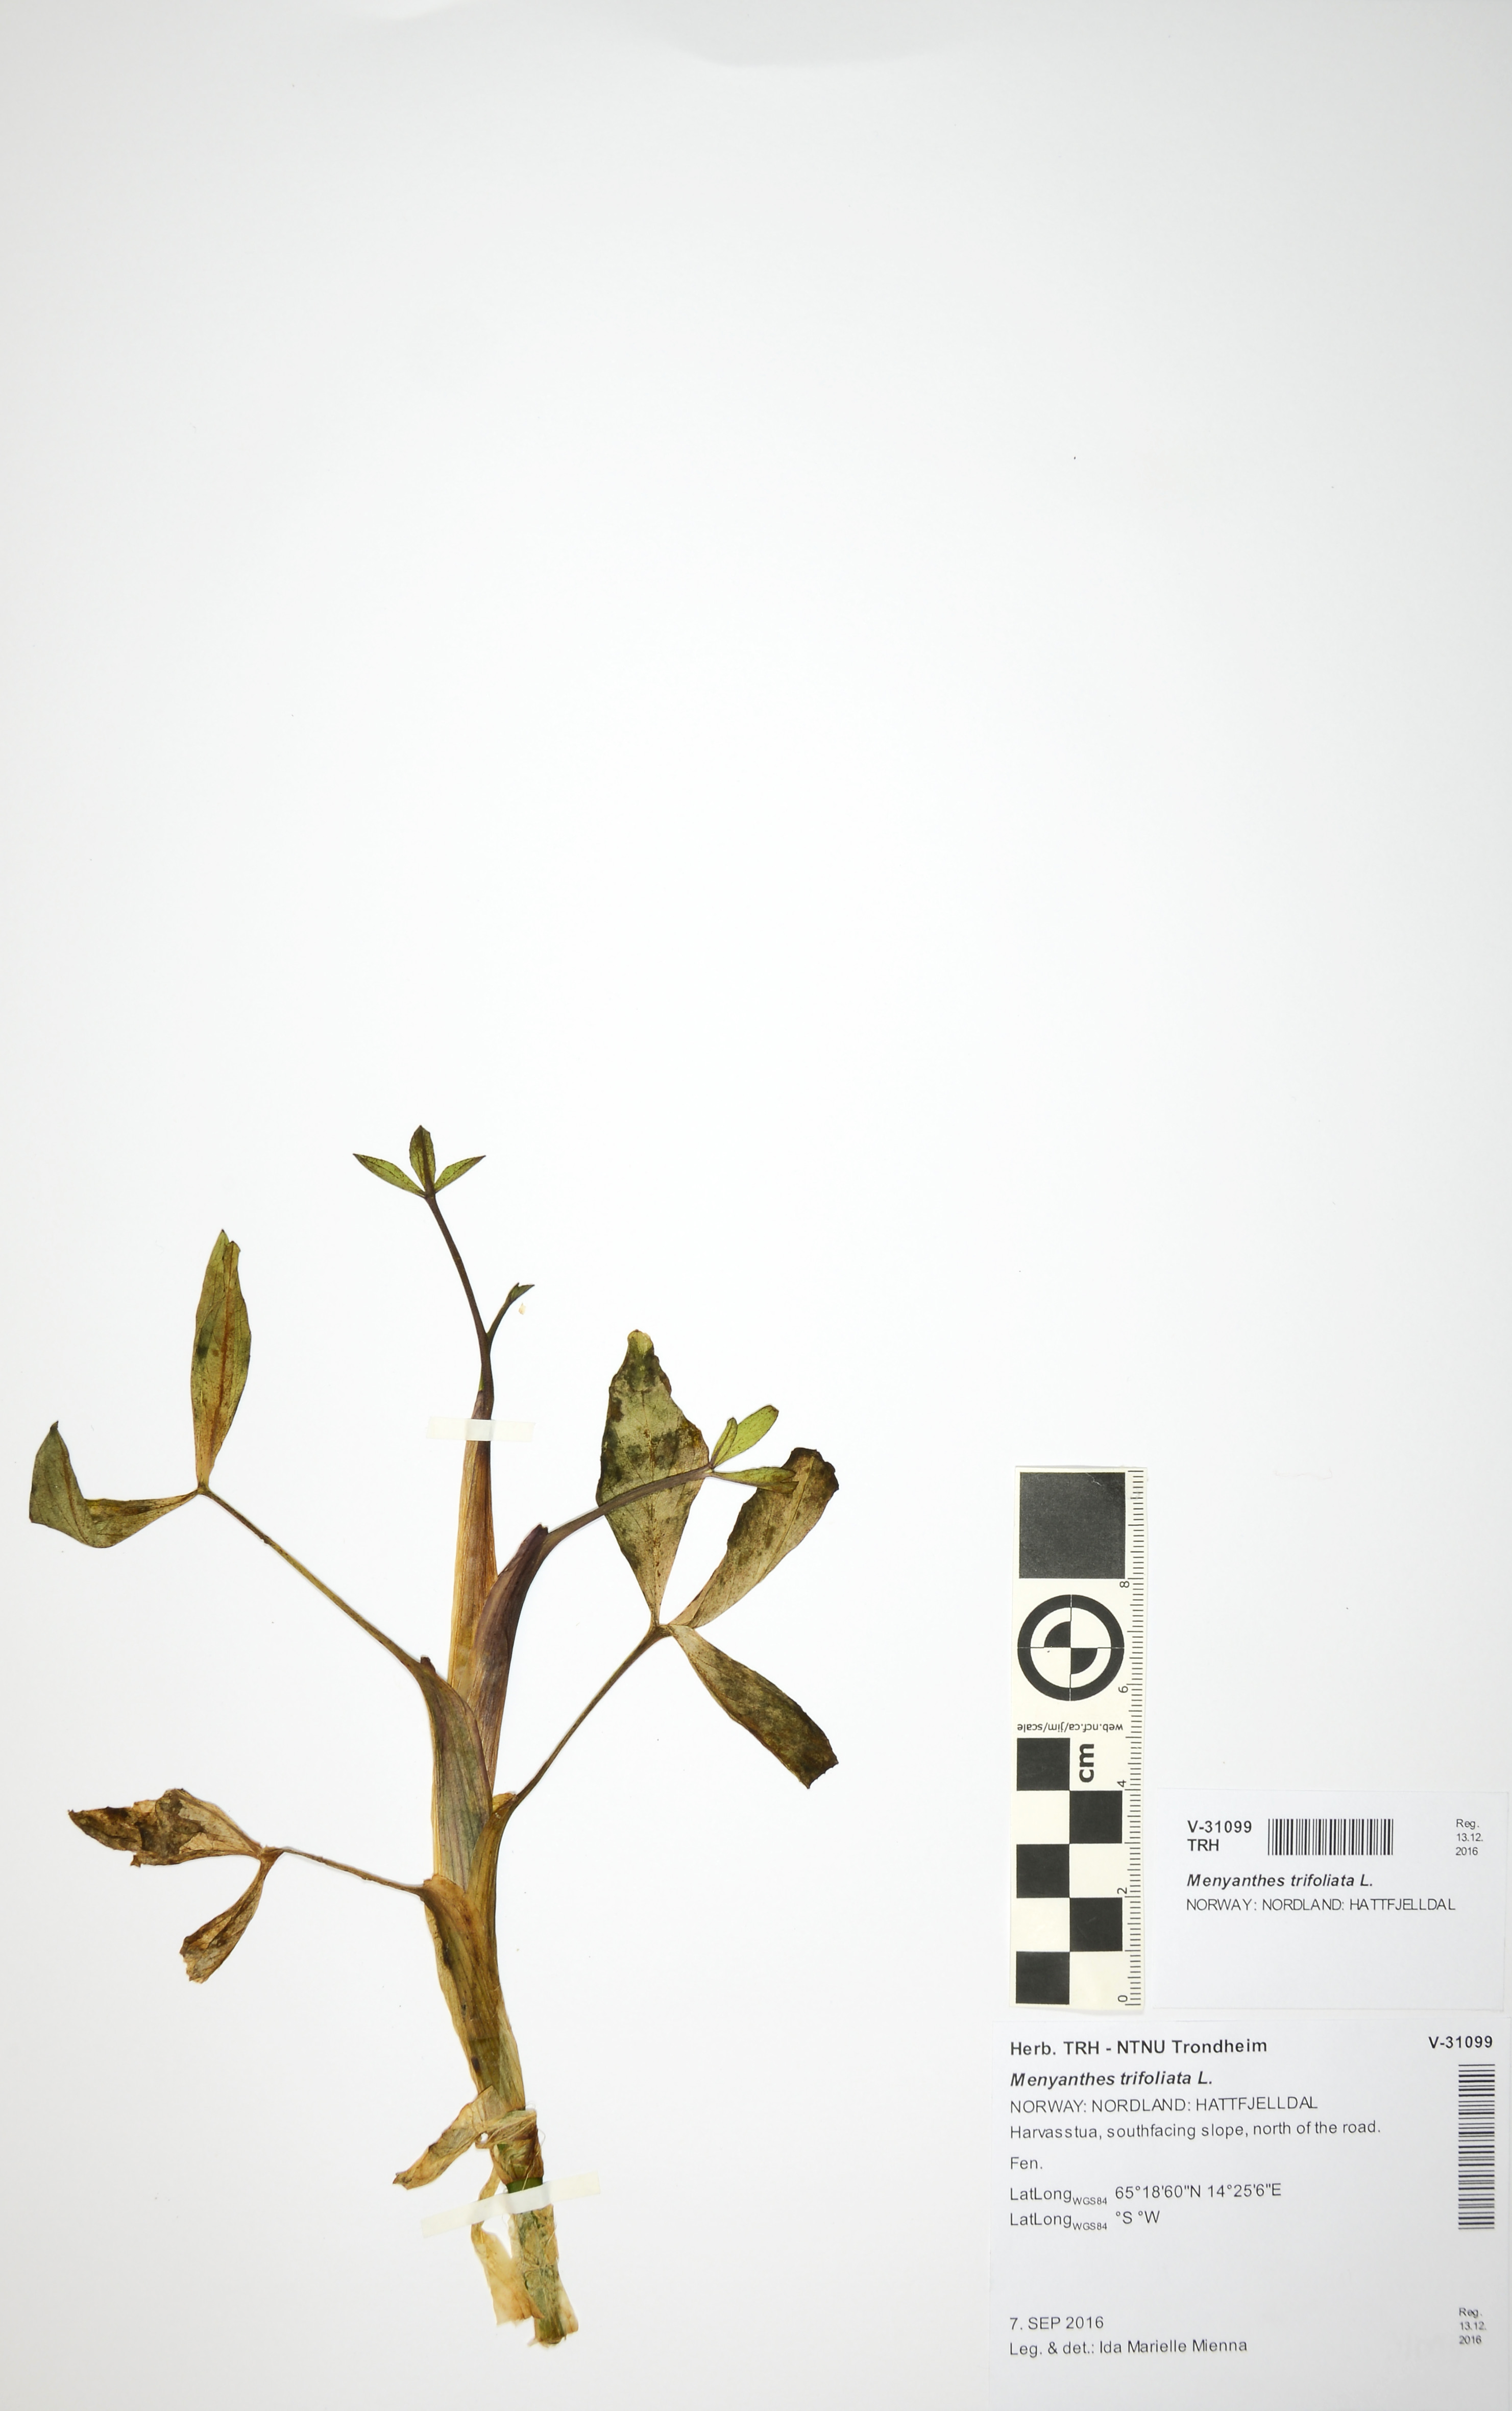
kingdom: Plantae
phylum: Tracheophyta
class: Magnoliopsida
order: Asterales
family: Menyanthaceae
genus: Menyanthes
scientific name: Menyanthes trifoliata
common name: Bogbean
